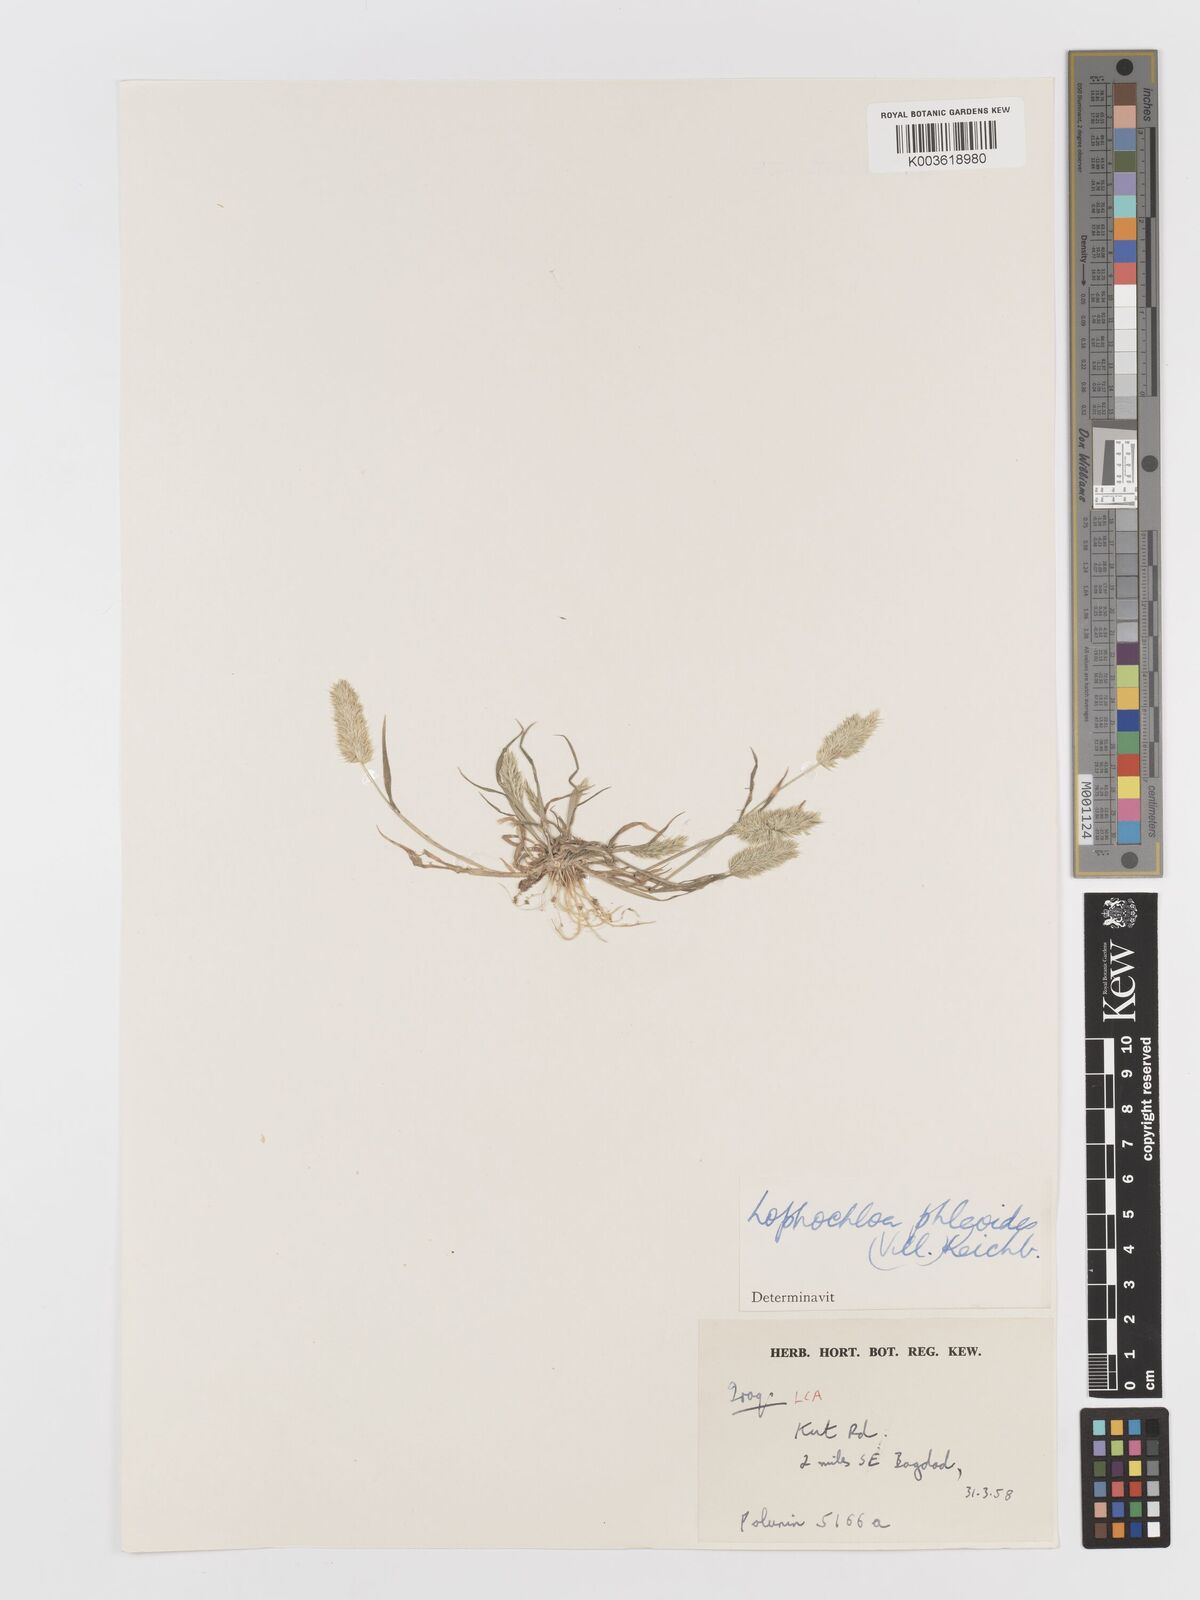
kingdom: Plantae
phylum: Tracheophyta
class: Liliopsida
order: Poales
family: Poaceae
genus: Rostraria
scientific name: Rostraria cristata
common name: Mediterranean hair-grass
